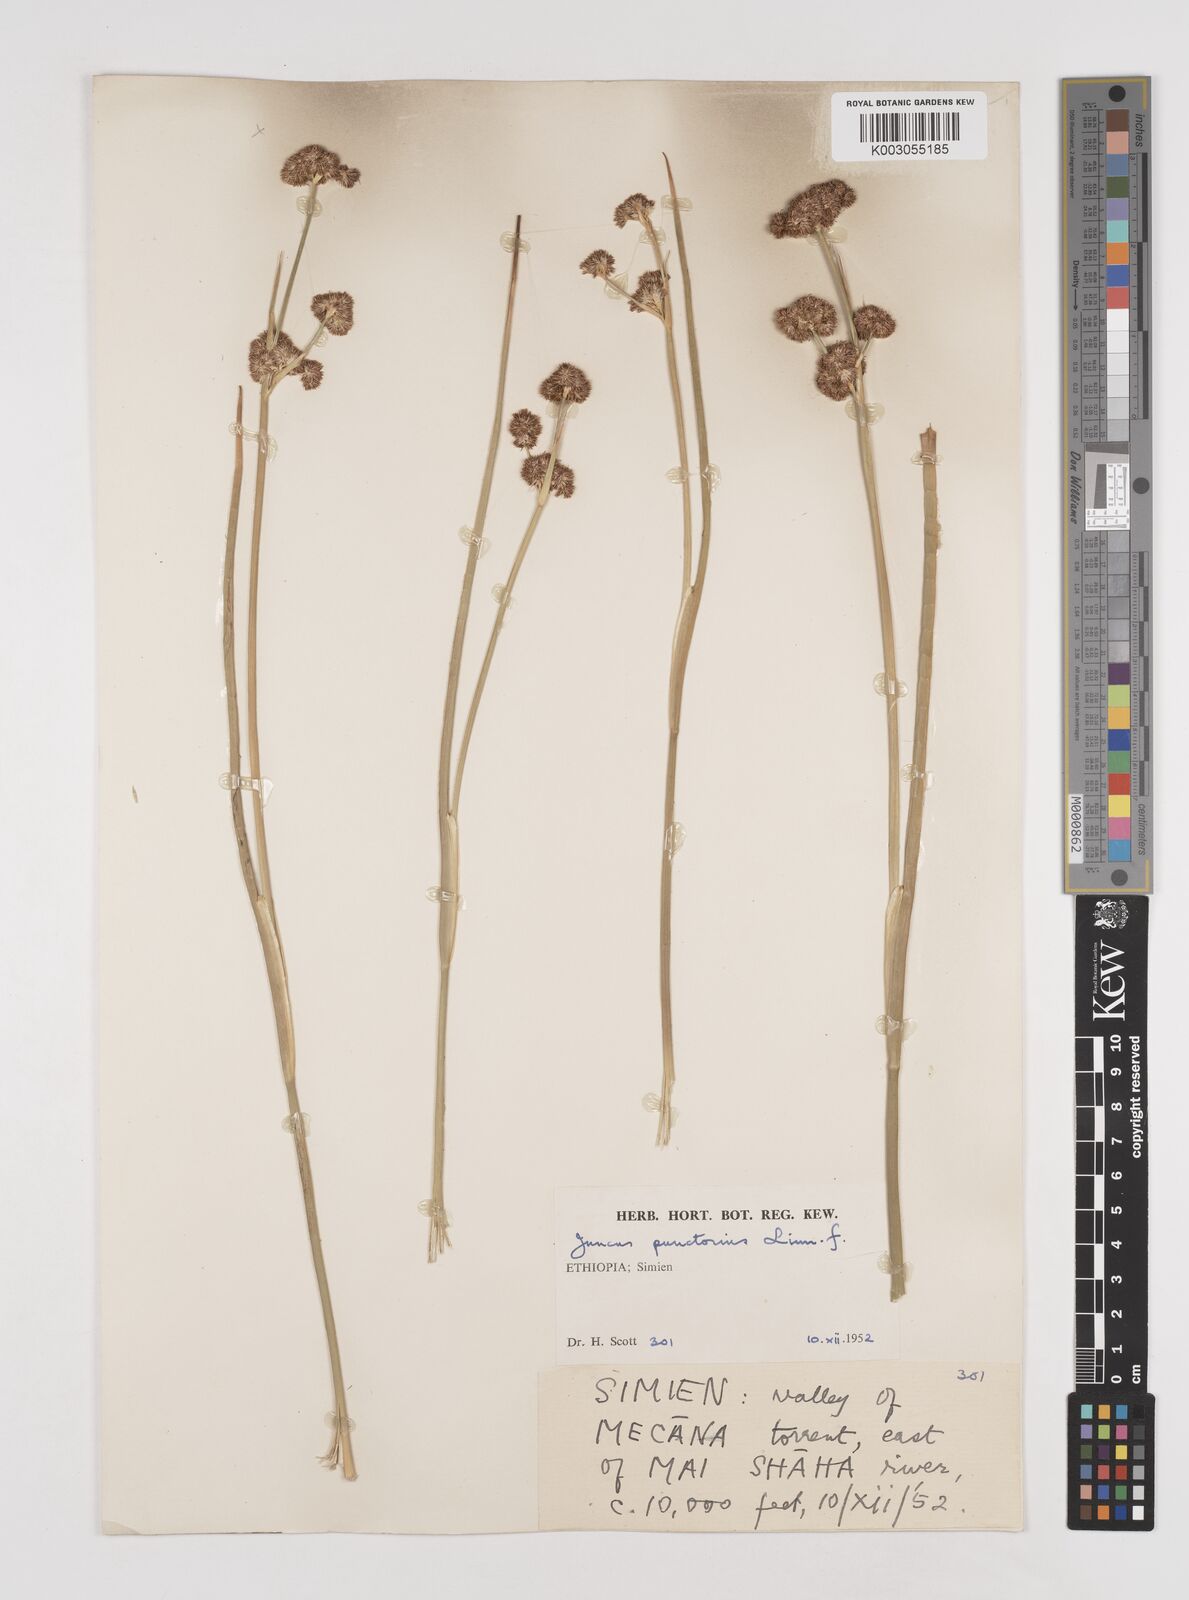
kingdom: Plantae
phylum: Tracheophyta
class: Liliopsida
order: Poales
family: Juncaceae
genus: Juncus
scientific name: Juncus punctorius
